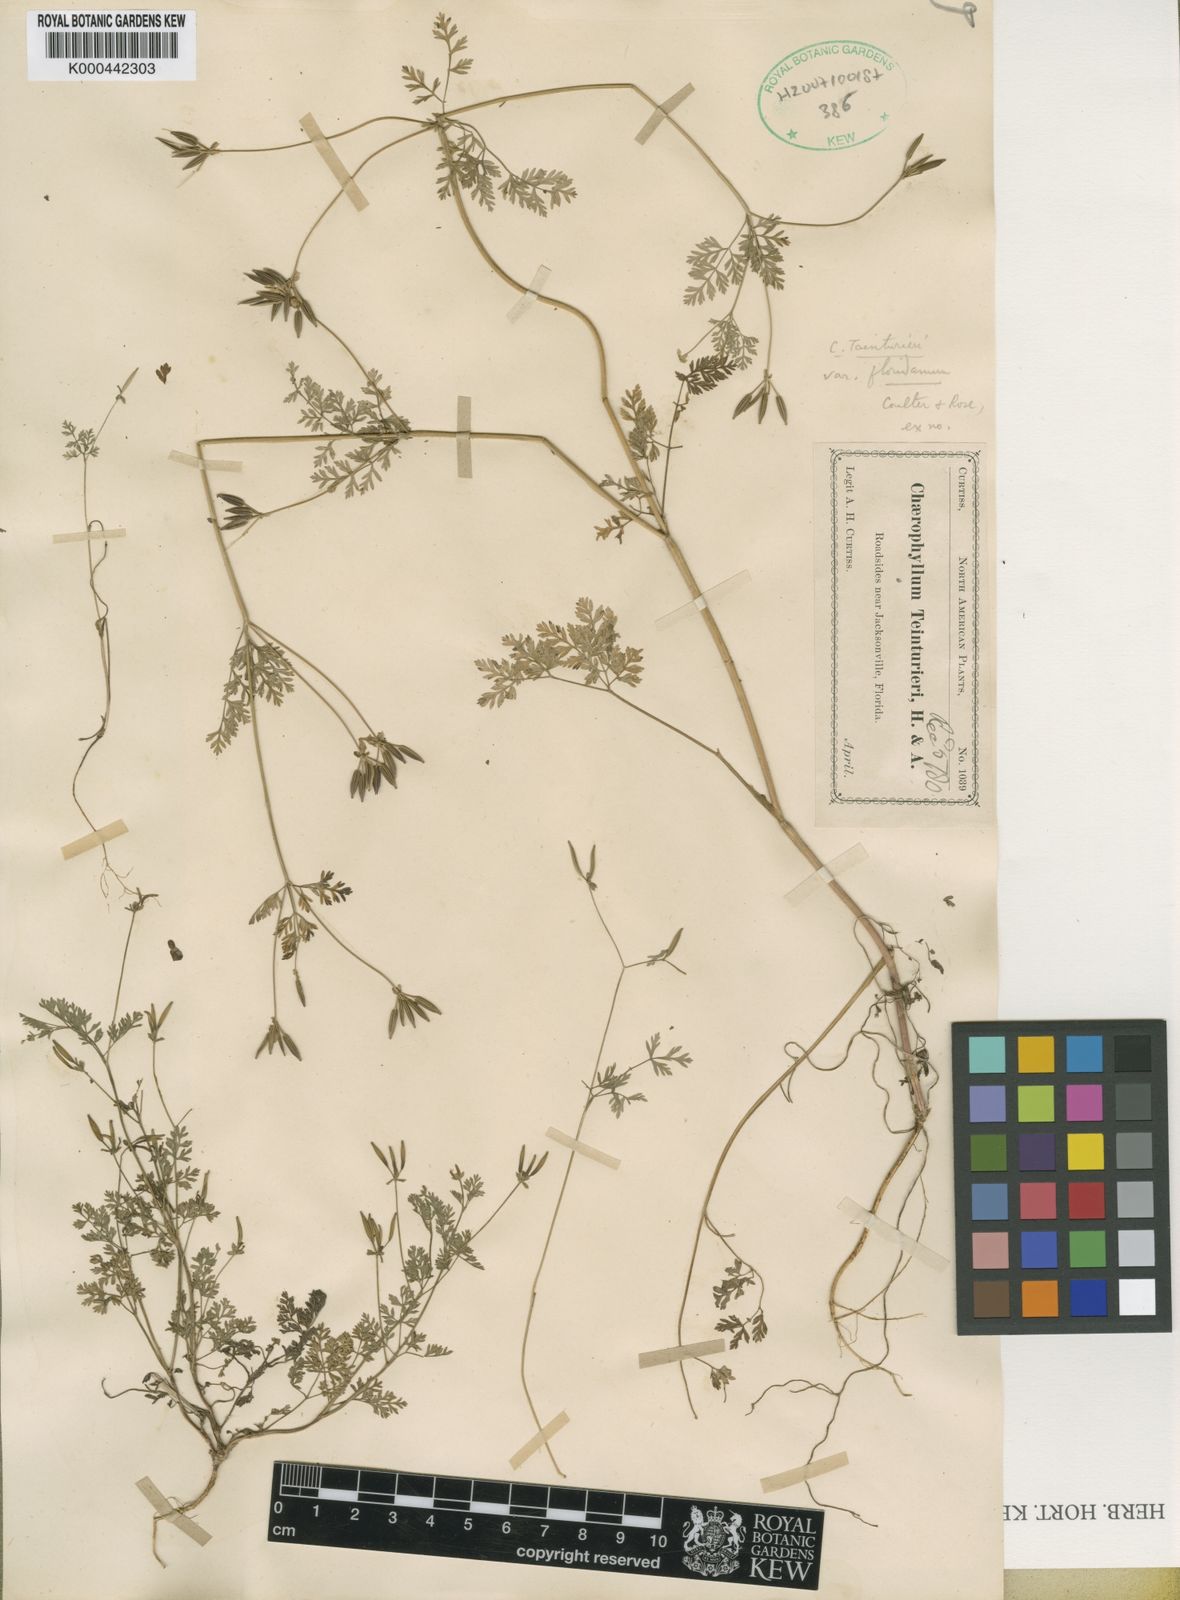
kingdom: Plantae
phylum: Tracheophyta
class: Magnoliopsida
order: Apiales
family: Apiaceae
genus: Chaerophyllum
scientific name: Chaerophyllum tainturieri
